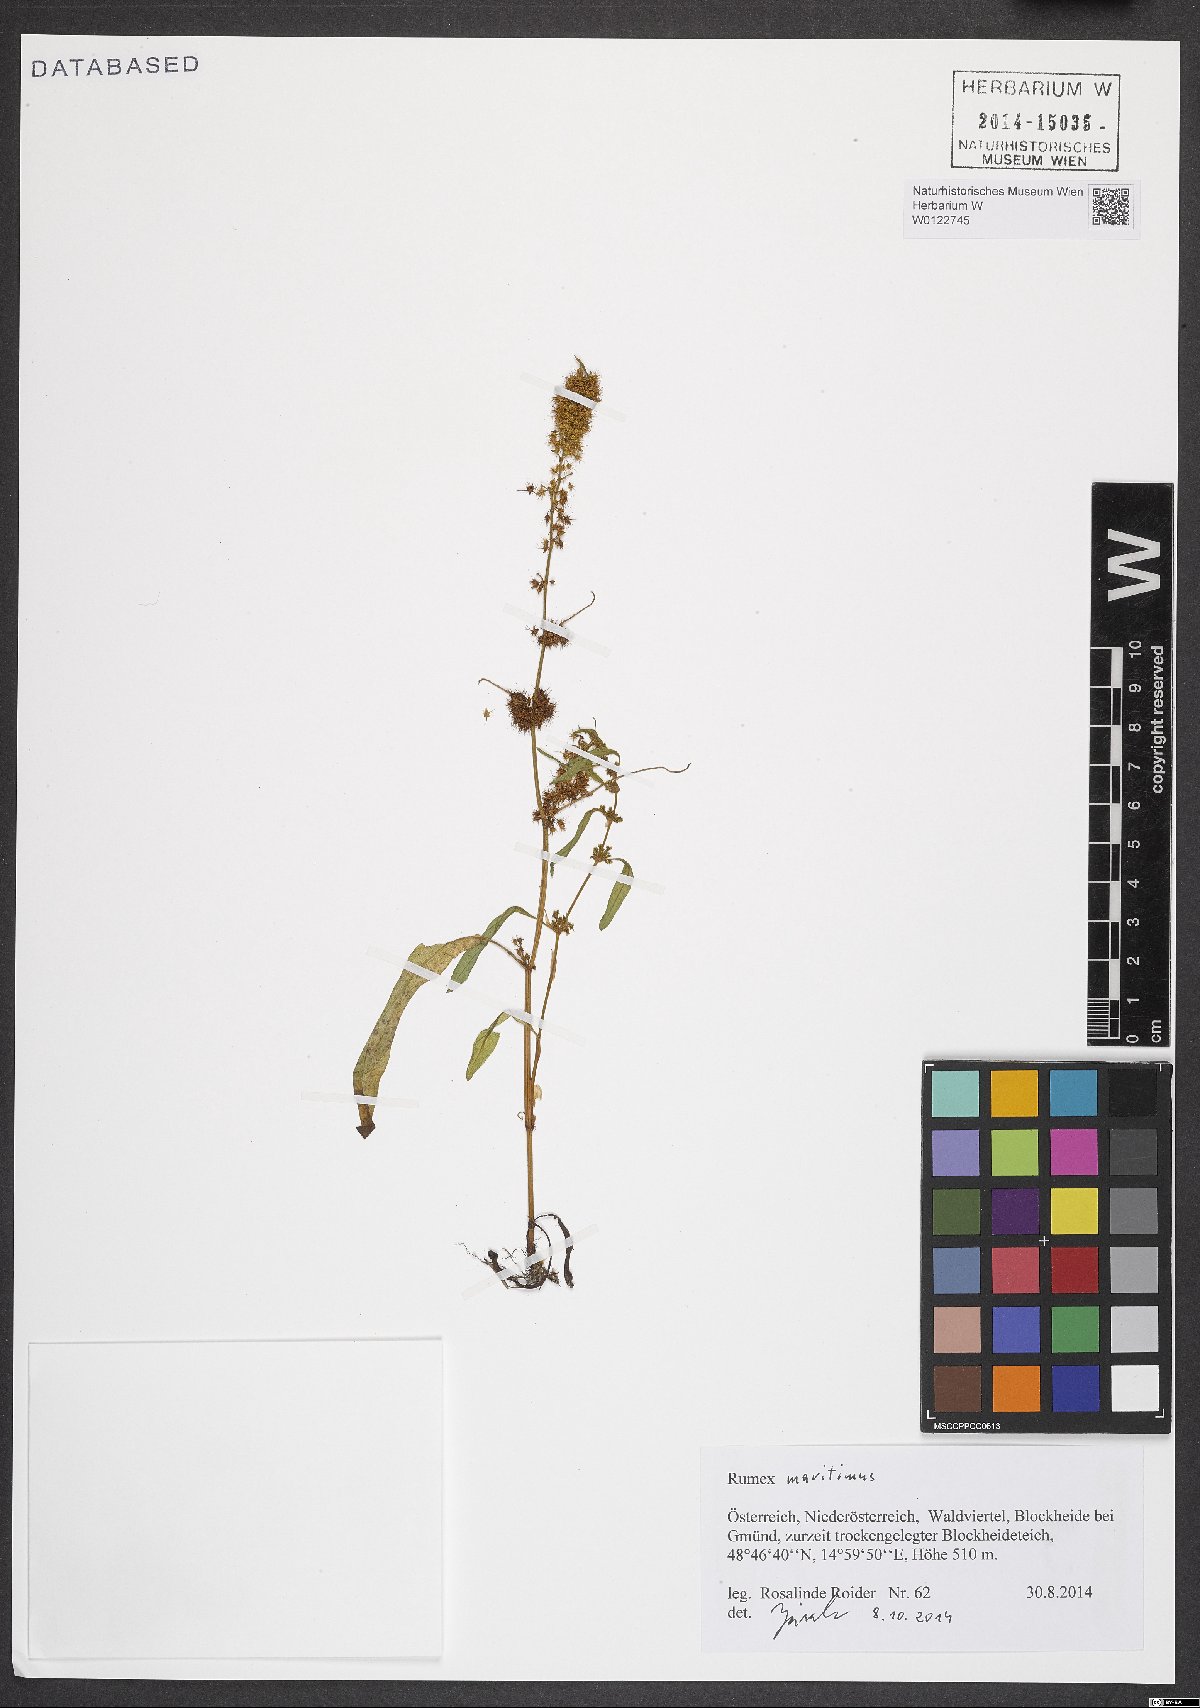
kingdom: Plantae
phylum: Tracheophyta
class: Magnoliopsida
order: Caryophyllales
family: Polygonaceae
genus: Rumex
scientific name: Rumex maritimus
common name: Golden dock
